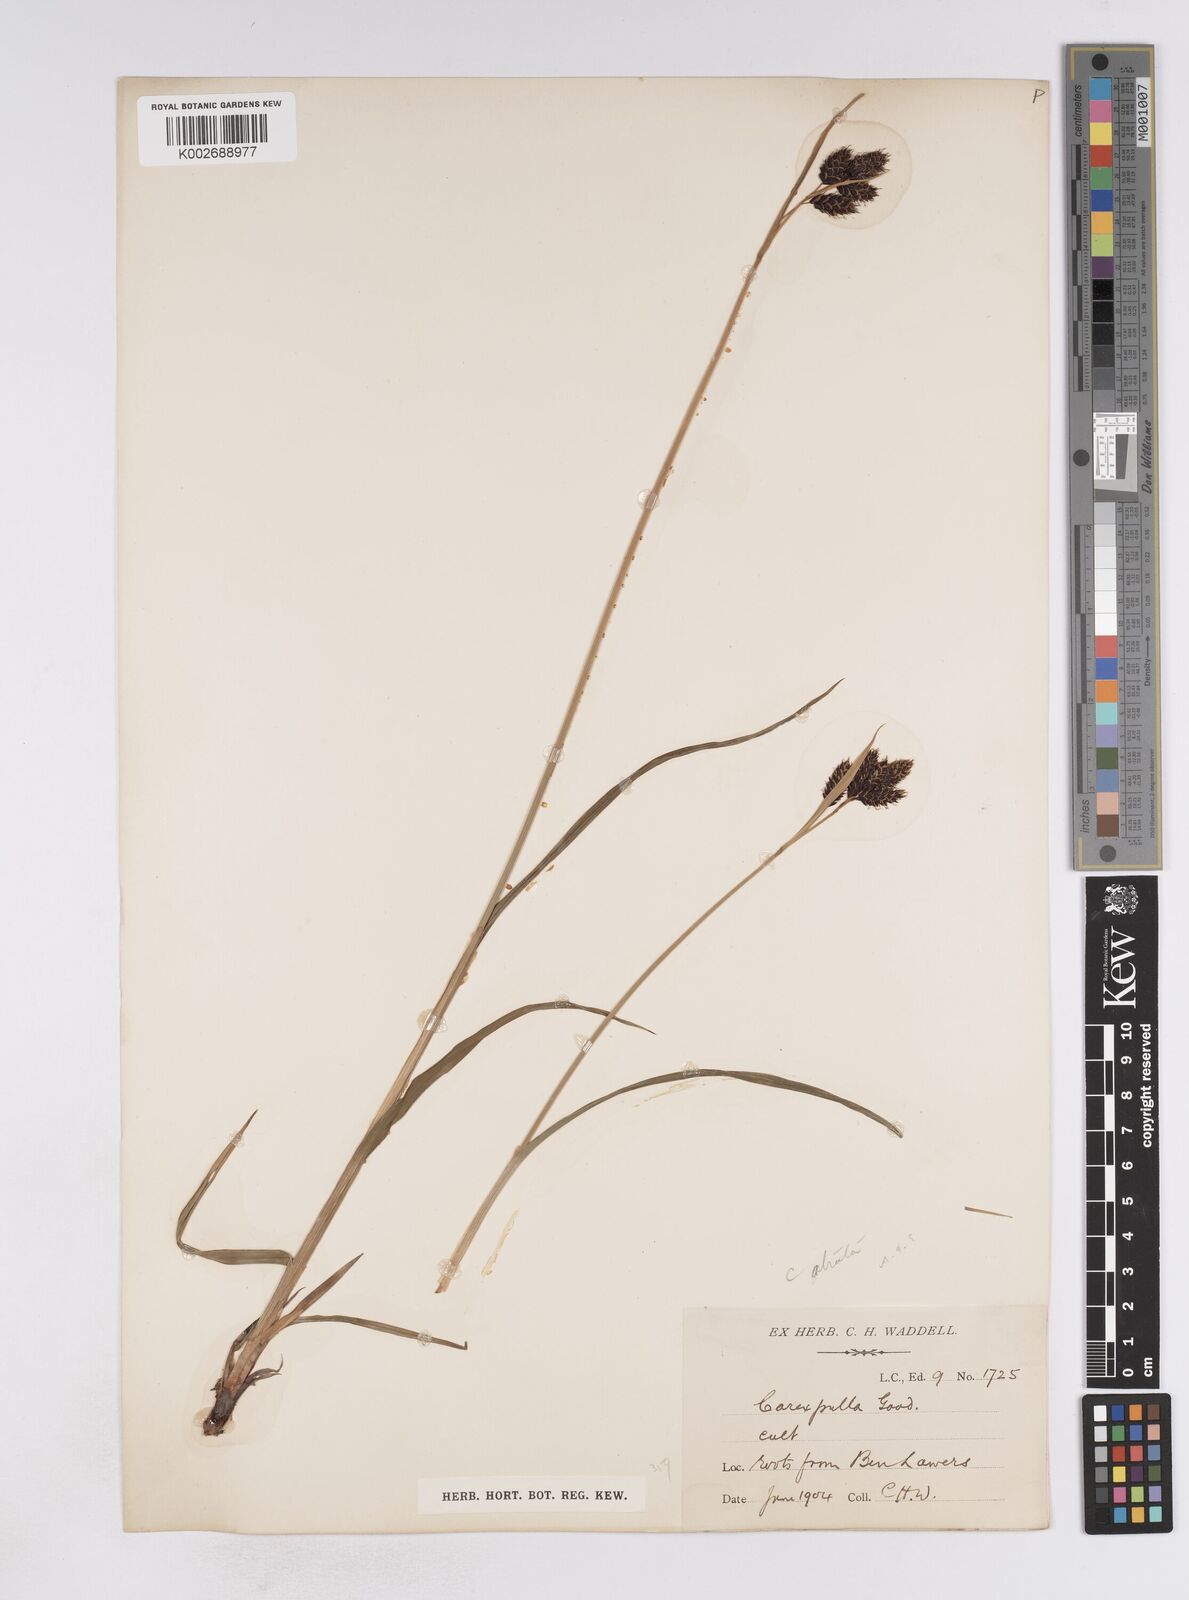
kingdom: Plantae
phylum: Tracheophyta
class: Liliopsida
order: Poales
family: Cyperaceae
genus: Carex
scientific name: Carex atrata
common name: Black alpine sedge
